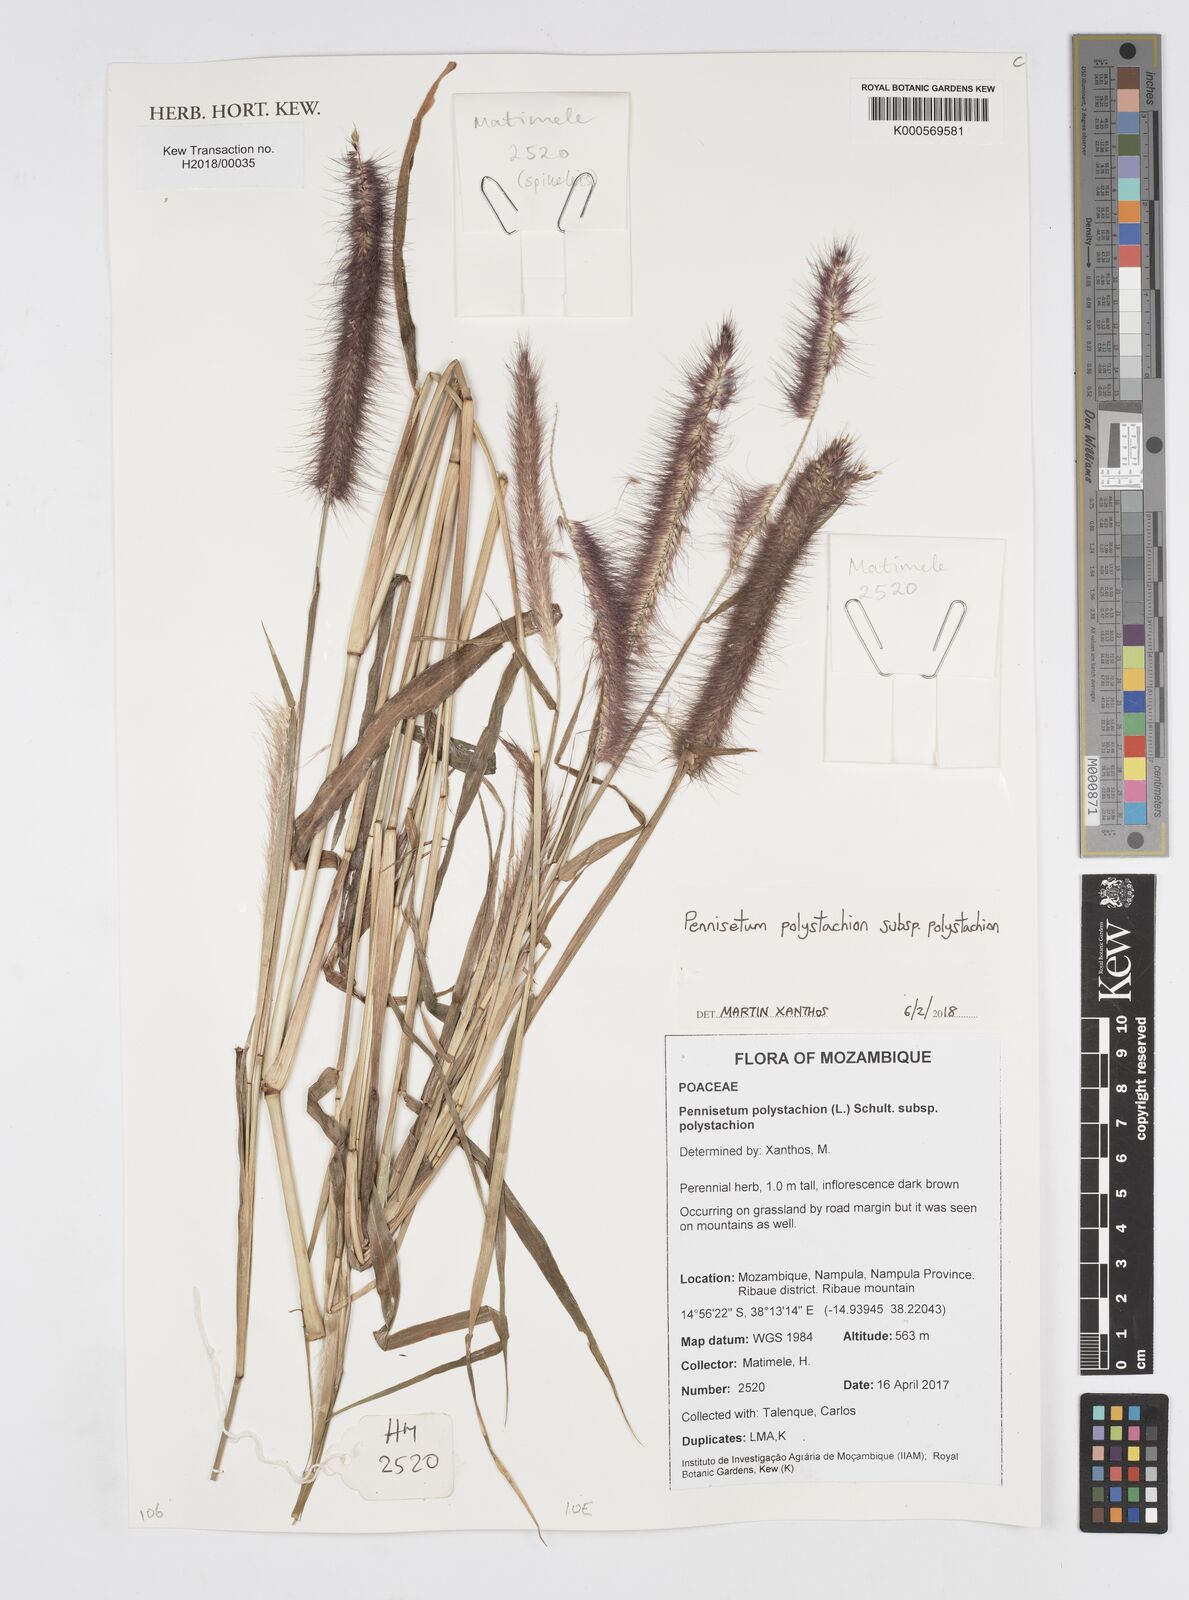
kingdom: Plantae
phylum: Tracheophyta
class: Liliopsida
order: Poales
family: Poaceae
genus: Setaria
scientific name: Setaria parviflora
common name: Knotroot bristle-grass
